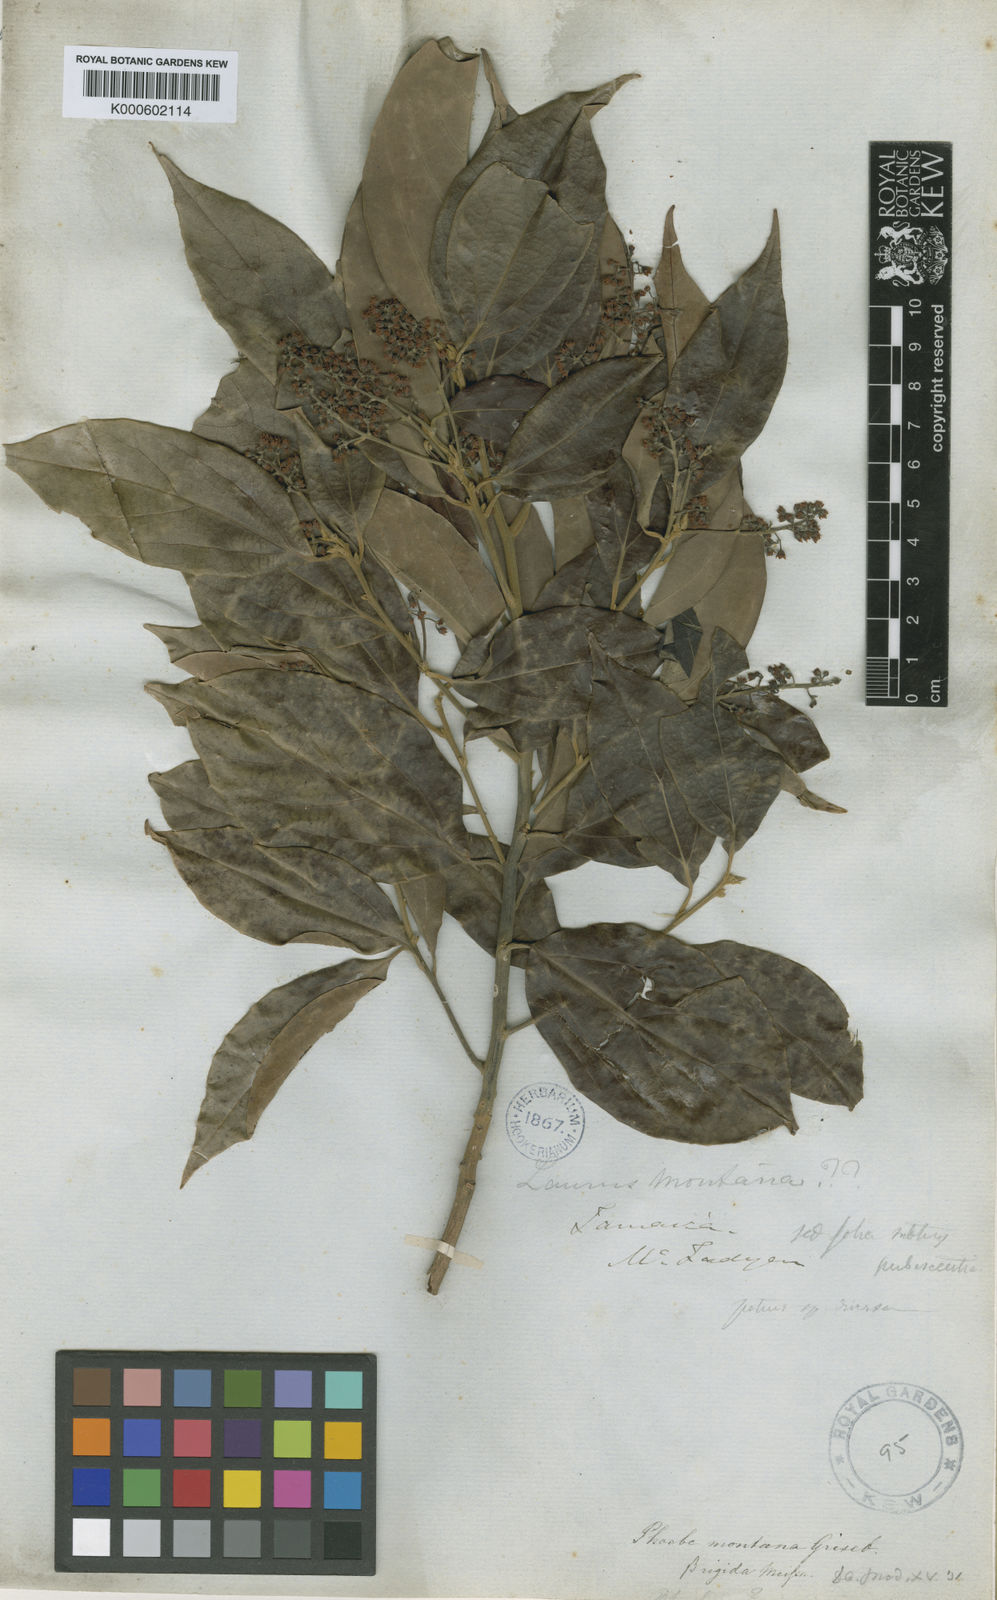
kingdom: Plantae
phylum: Tracheophyta
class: Magnoliopsida
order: Laurales
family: Lauraceae
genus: Aiouea
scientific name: Aiouea montana
